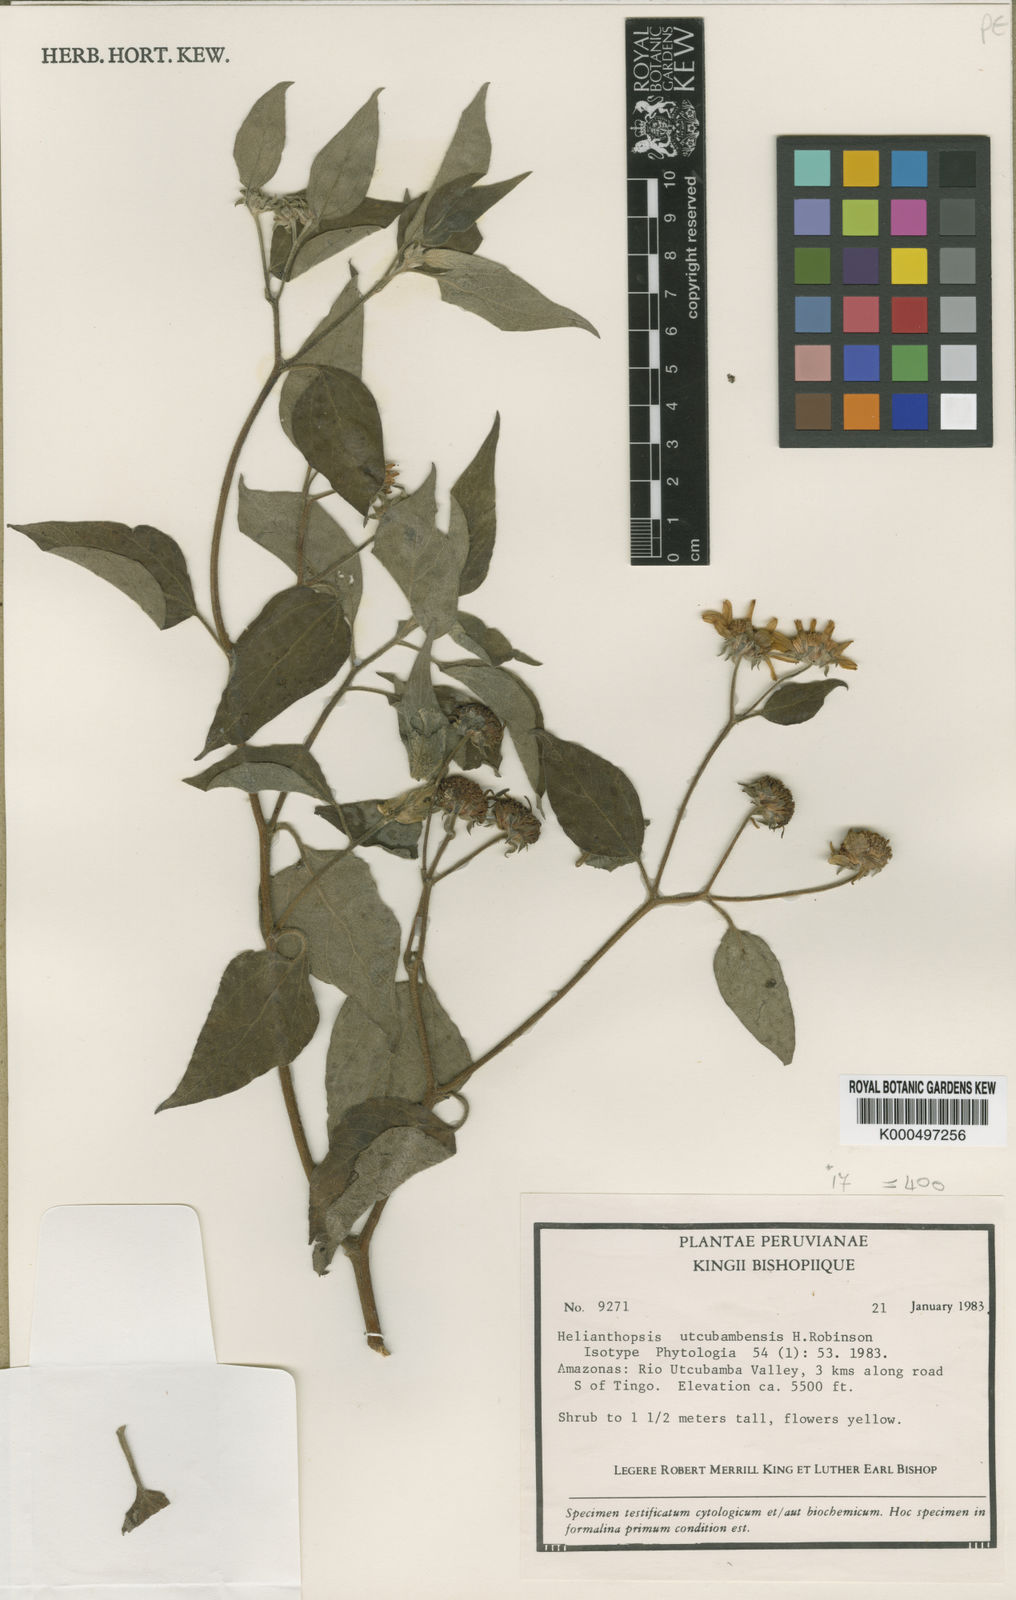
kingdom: Plantae
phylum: Tracheophyta
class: Magnoliopsida
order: Asterales
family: Asteraceae
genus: Pappobolus
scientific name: Pappobolus matthewsii
